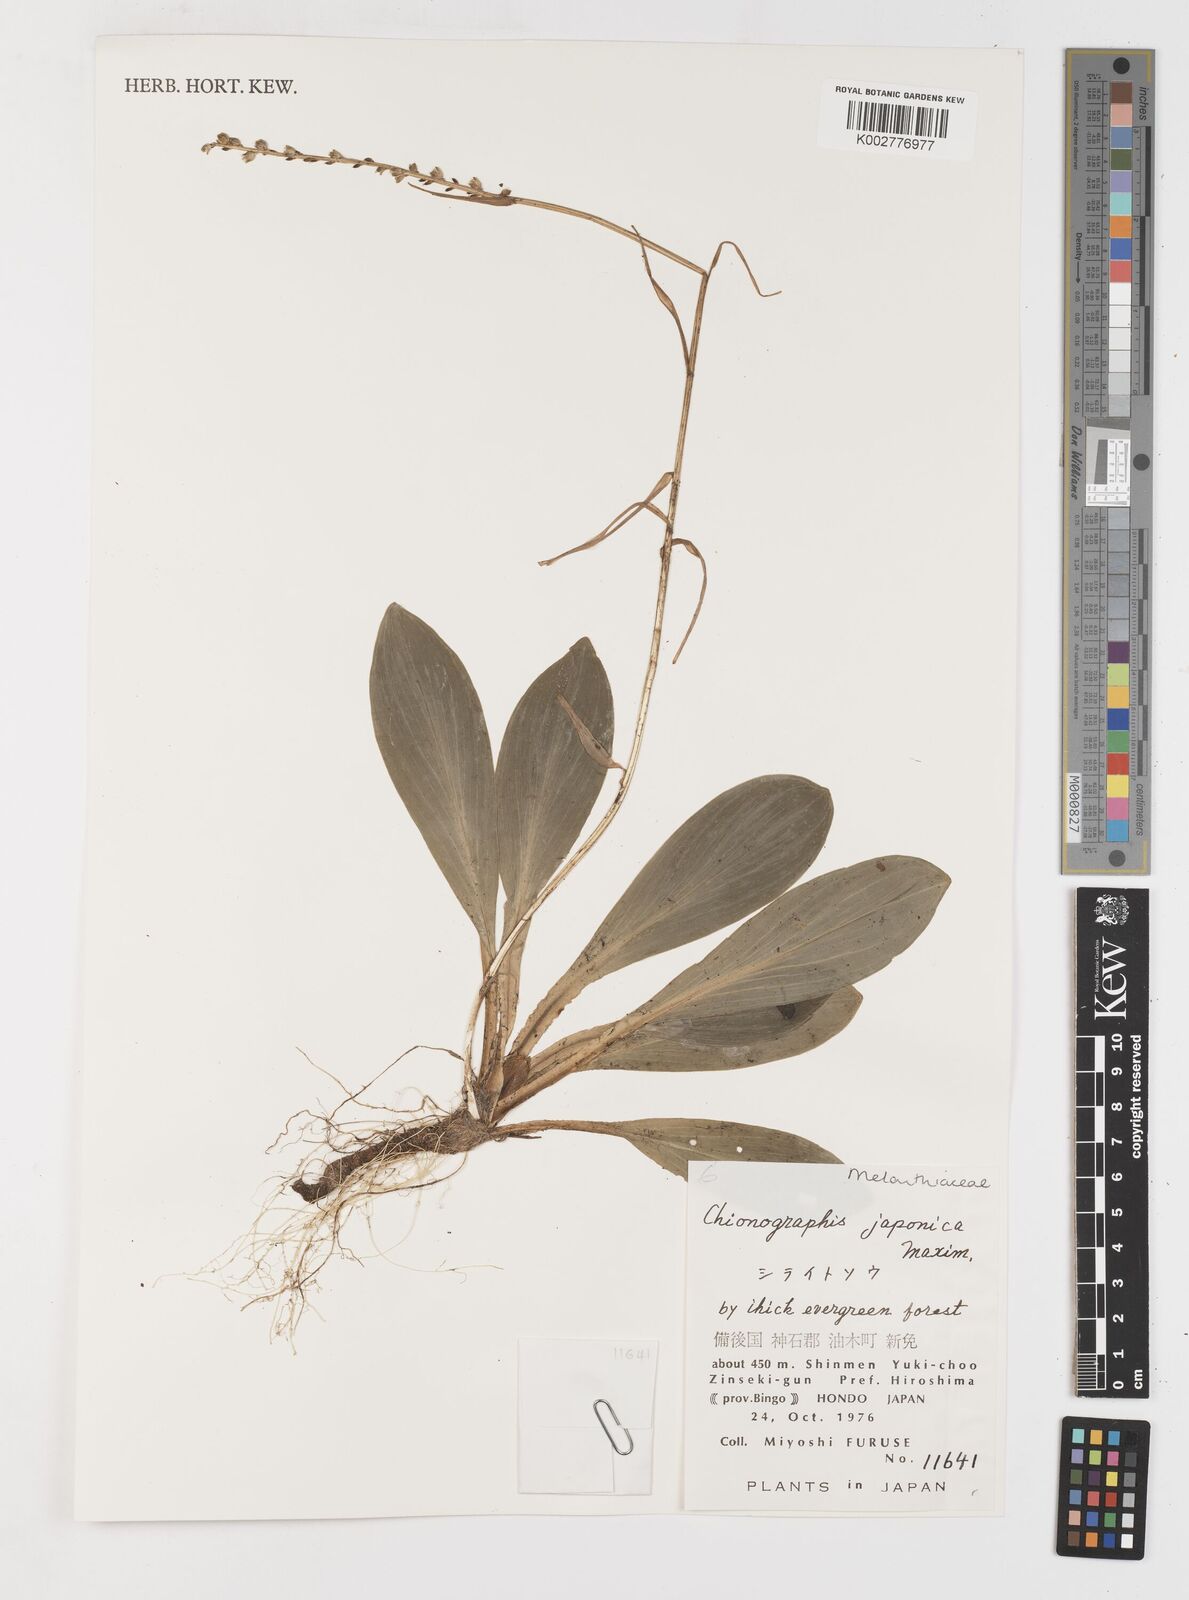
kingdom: Plantae
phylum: Tracheophyta
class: Liliopsida
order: Liliales
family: Melanthiaceae
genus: Chamaelirium
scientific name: Chamaelirium japonicum
